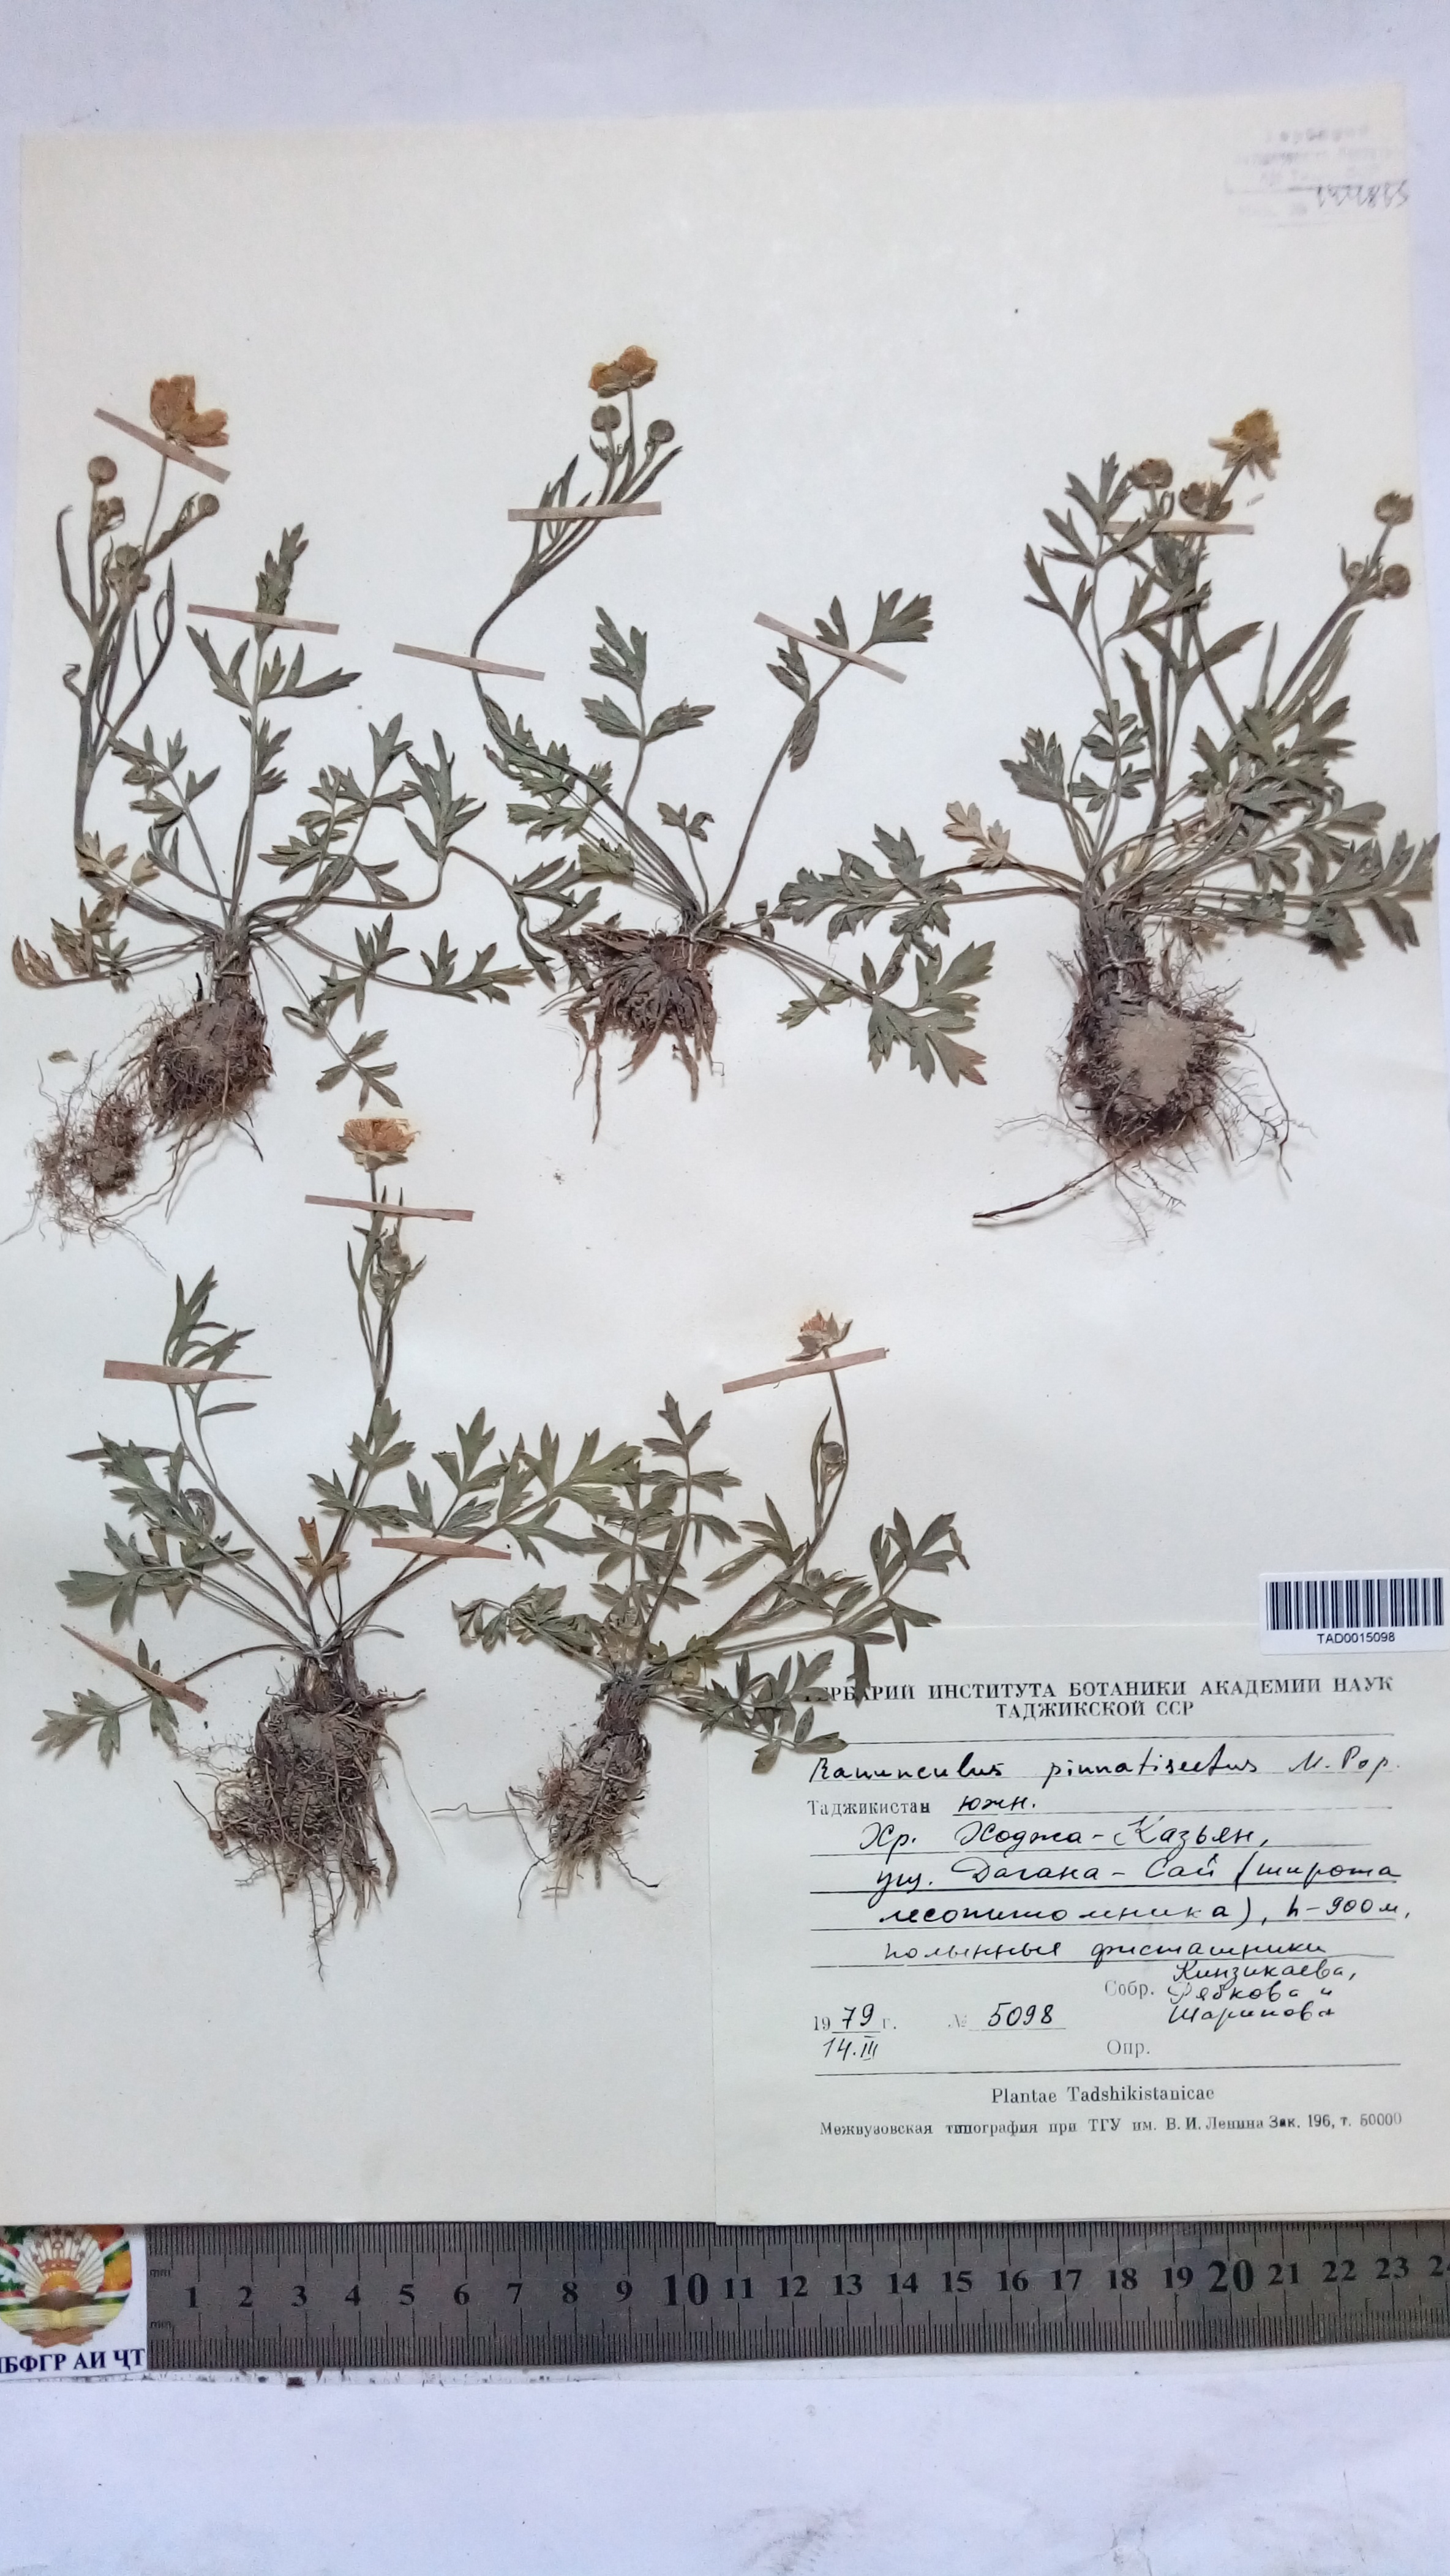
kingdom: Plantae
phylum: Tracheophyta
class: Magnoliopsida
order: Ranunculales
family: Ranunculaceae
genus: Ranunculus
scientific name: Ranunculus pinnatisectus
